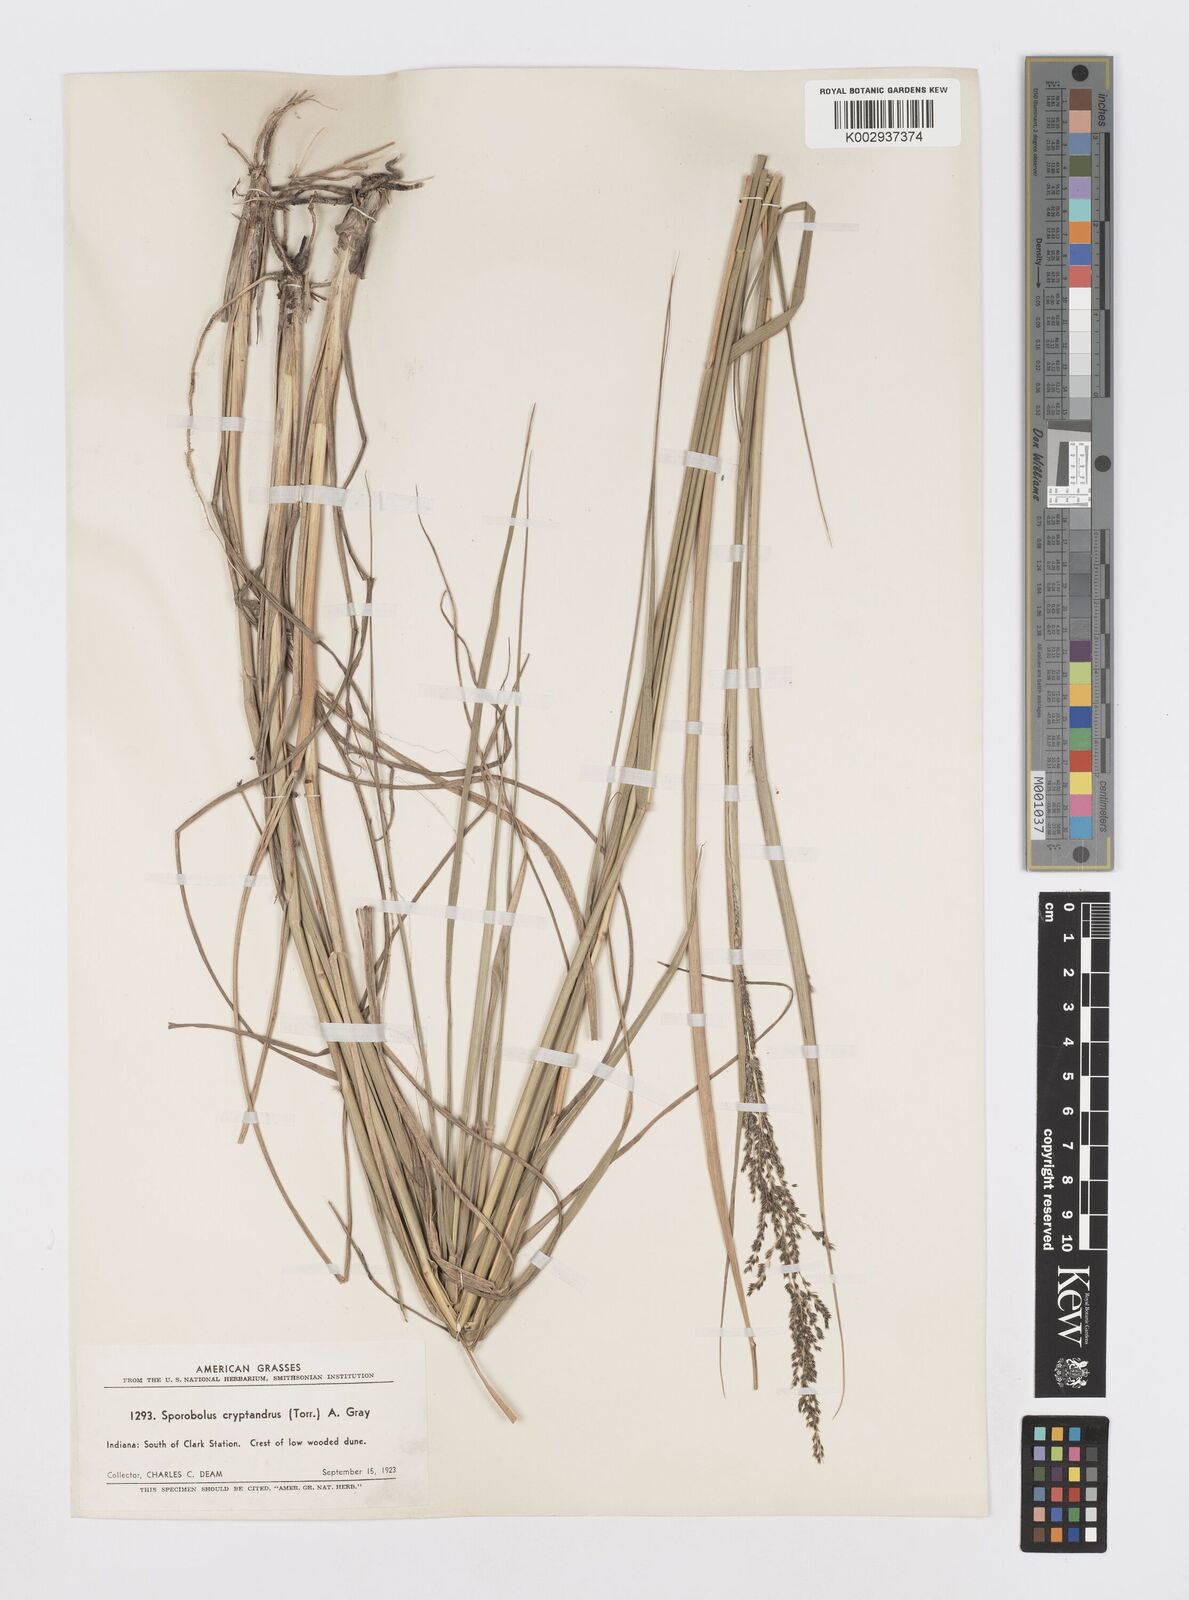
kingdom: Plantae
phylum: Tracheophyta
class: Liliopsida
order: Poales
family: Poaceae
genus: Sporobolus
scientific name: Sporobolus cryptandrus
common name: Sand dropseed
